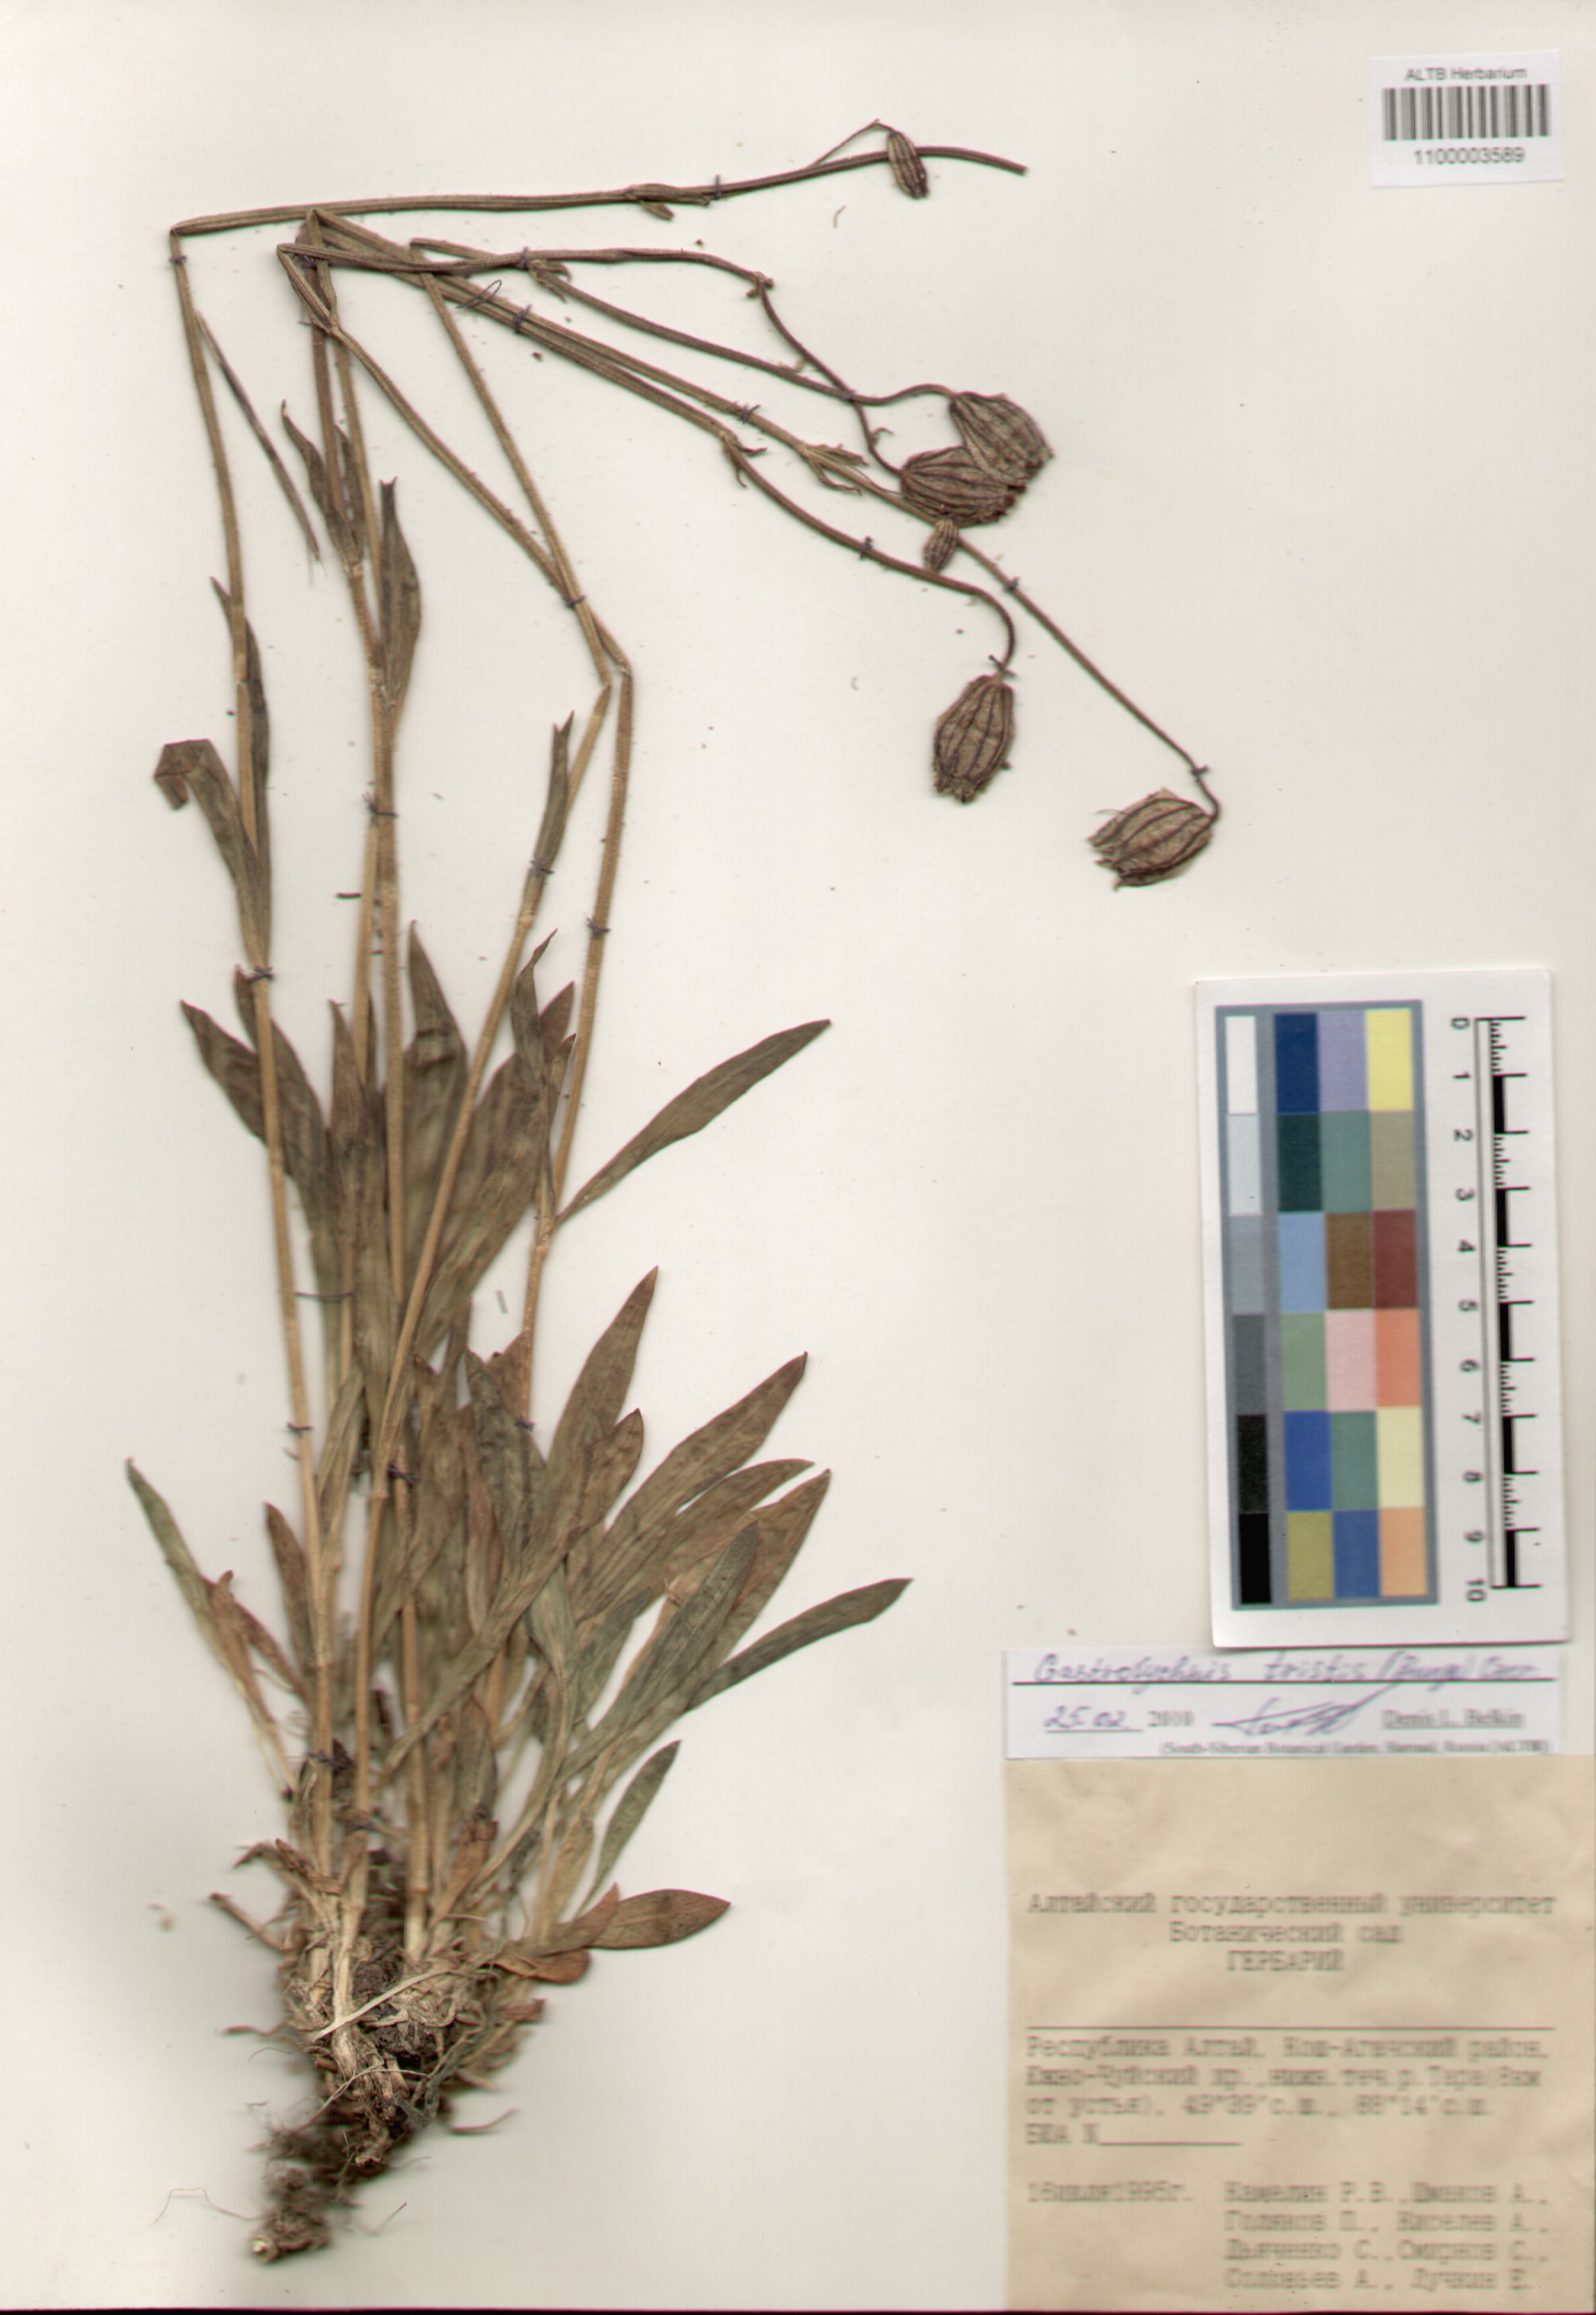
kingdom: Plantae
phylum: Tracheophyta
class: Magnoliopsida
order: Caryophyllales
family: Caryophyllaceae
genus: Silene
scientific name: Silene bungei
